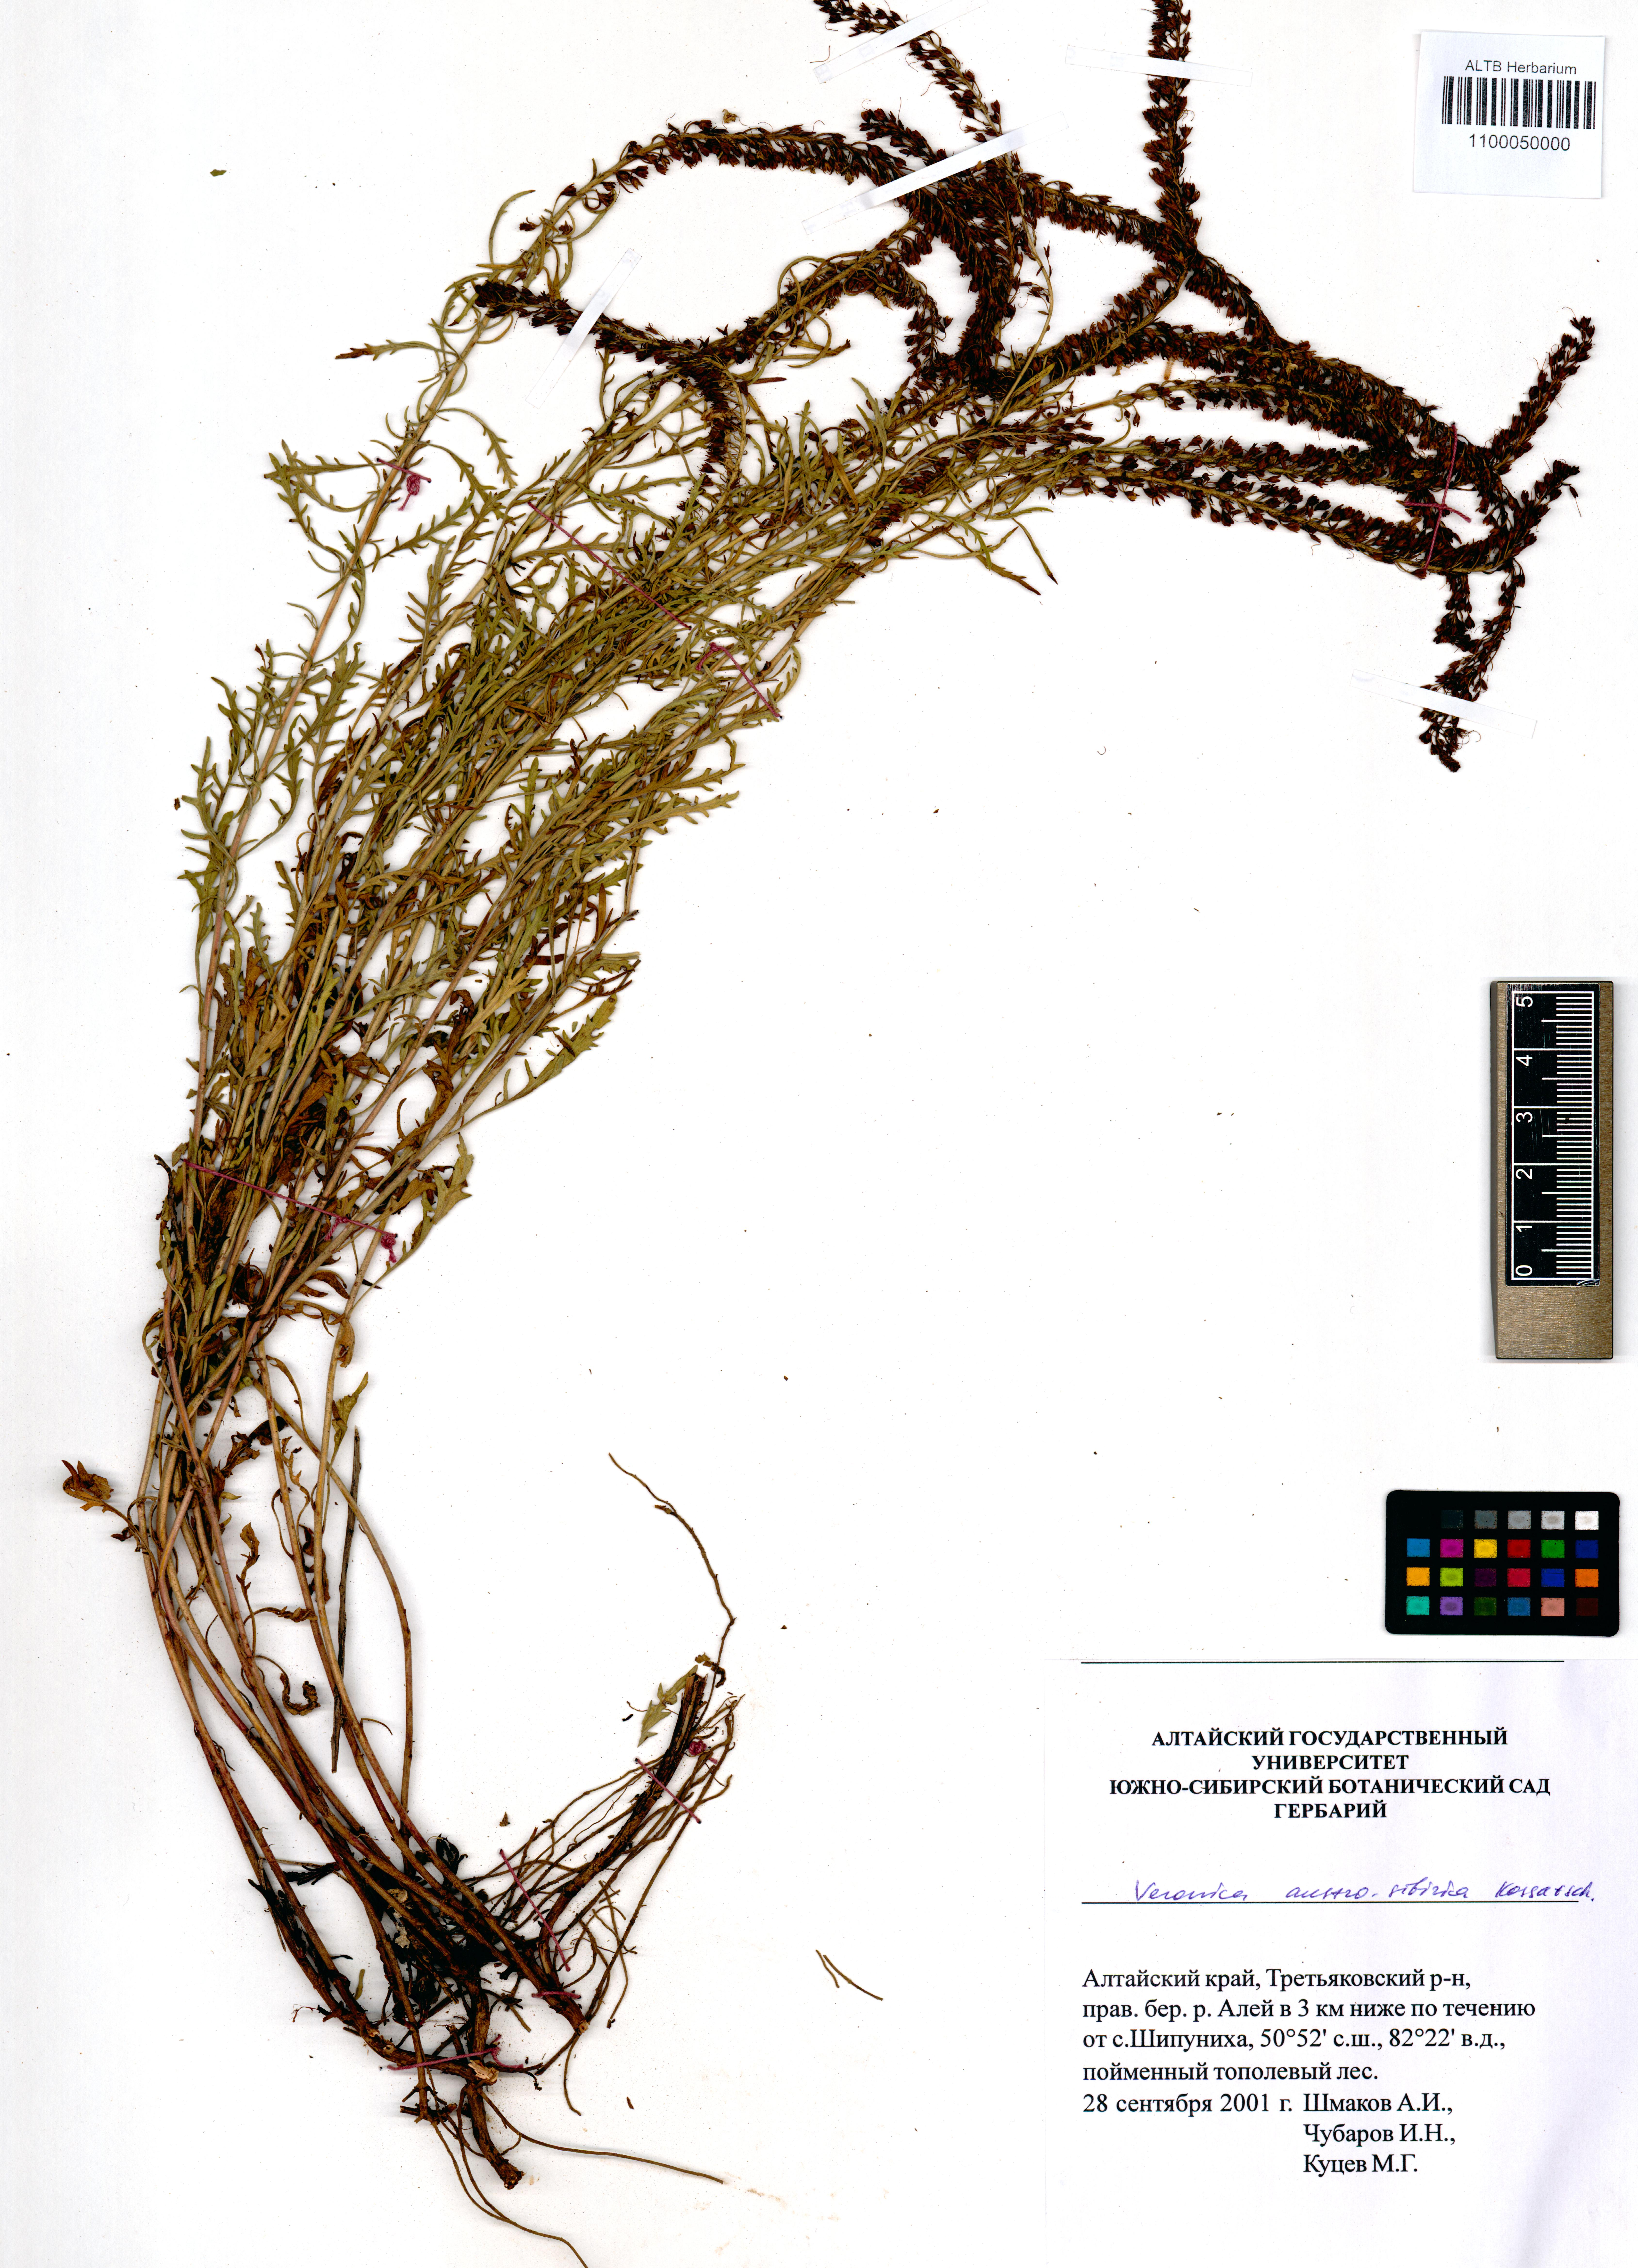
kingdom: Plantae
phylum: Tracheophyta
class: Magnoliopsida
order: Lamiales
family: Plantaginaceae
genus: Veronica
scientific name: Veronica altaica
